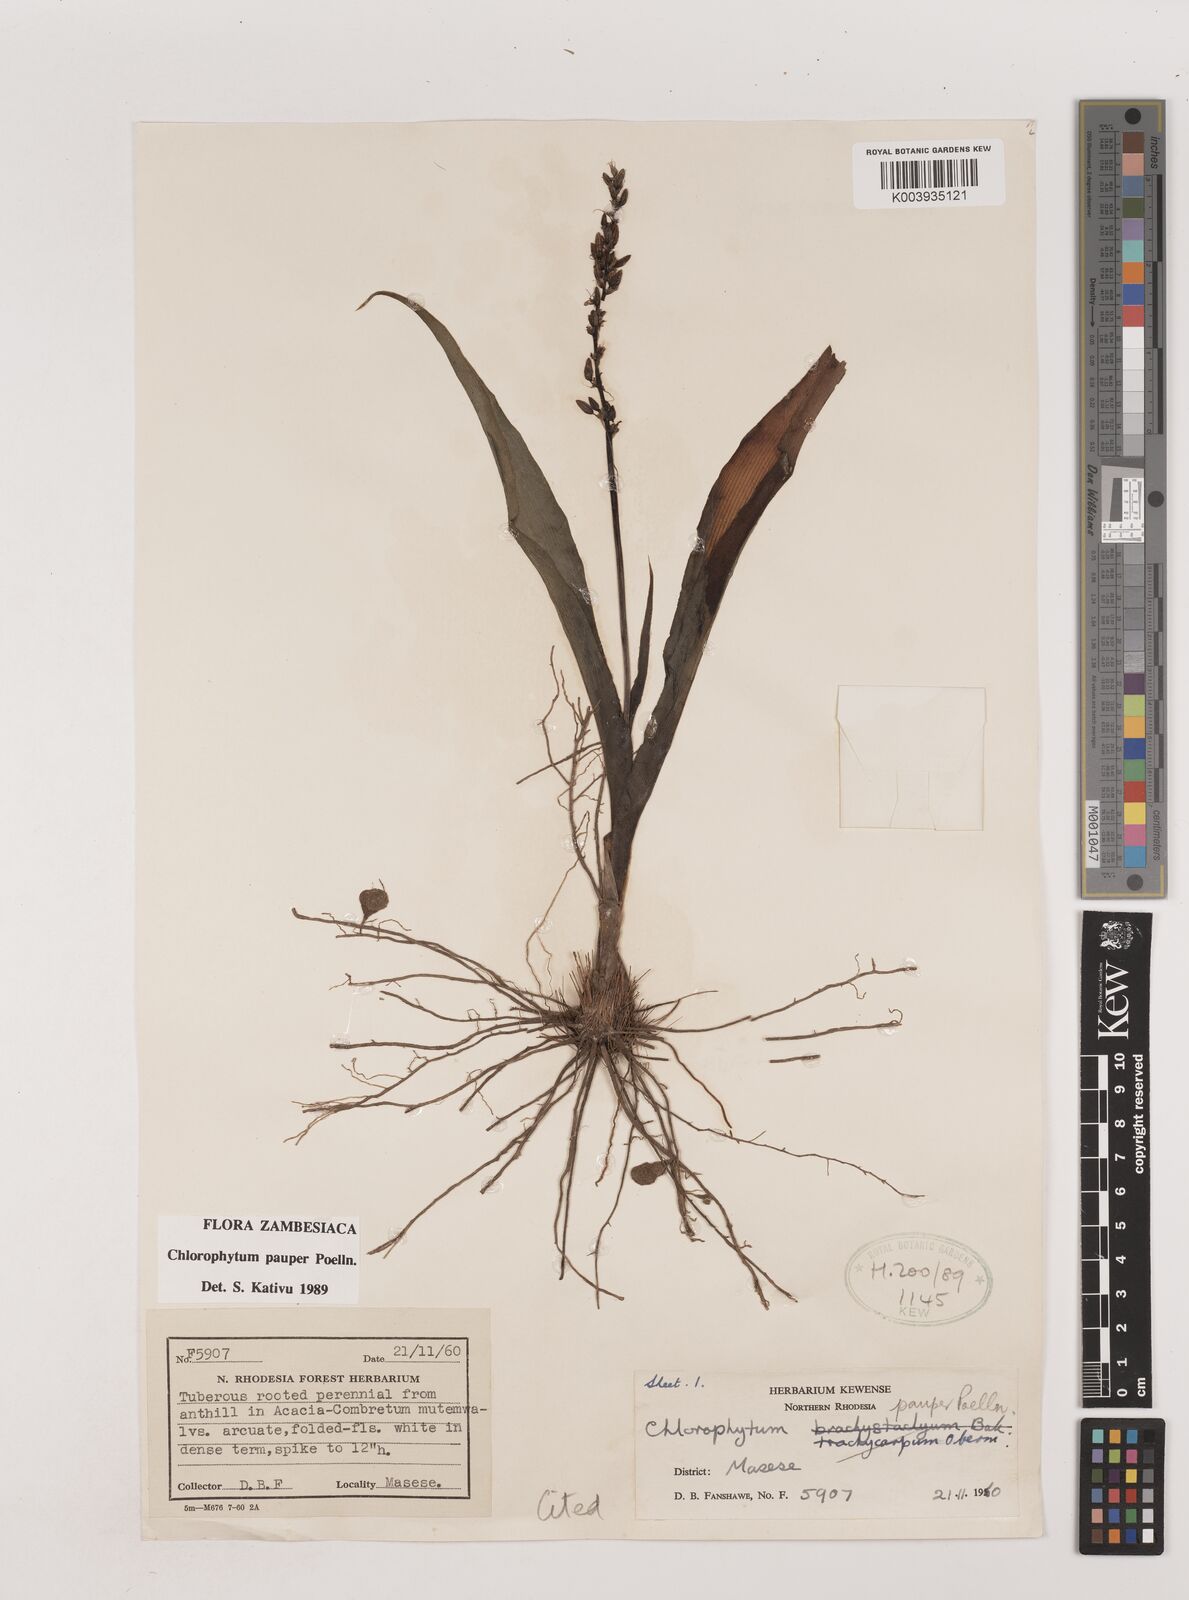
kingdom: Plantae
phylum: Tracheophyta
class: Liliopsida
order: Asparagales
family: Asparagaceae
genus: Chlorophytum
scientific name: Chlorophytum pauper
